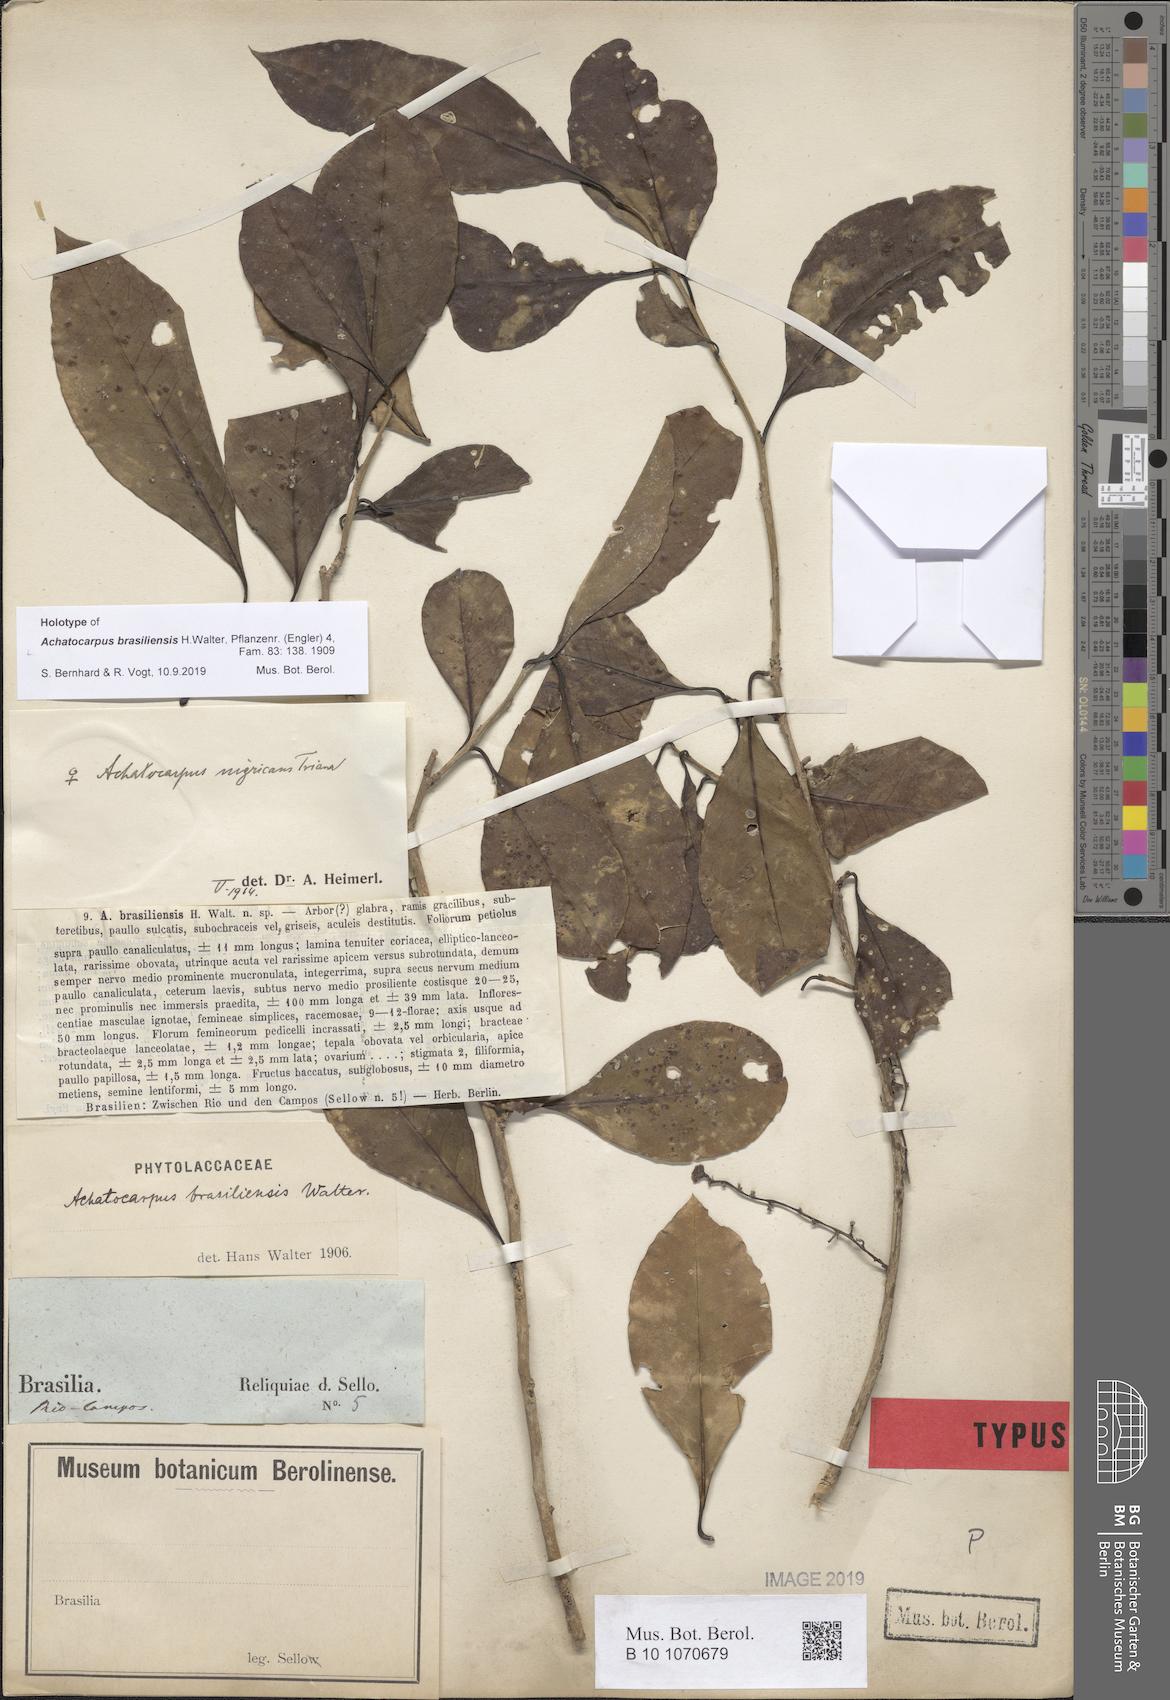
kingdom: Plantae
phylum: Tracheophyta
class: Magnoliopsida
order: Caryophyllales
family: Achatocarpaceae
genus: Achatocarpus
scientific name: Achatocarpus praecox
